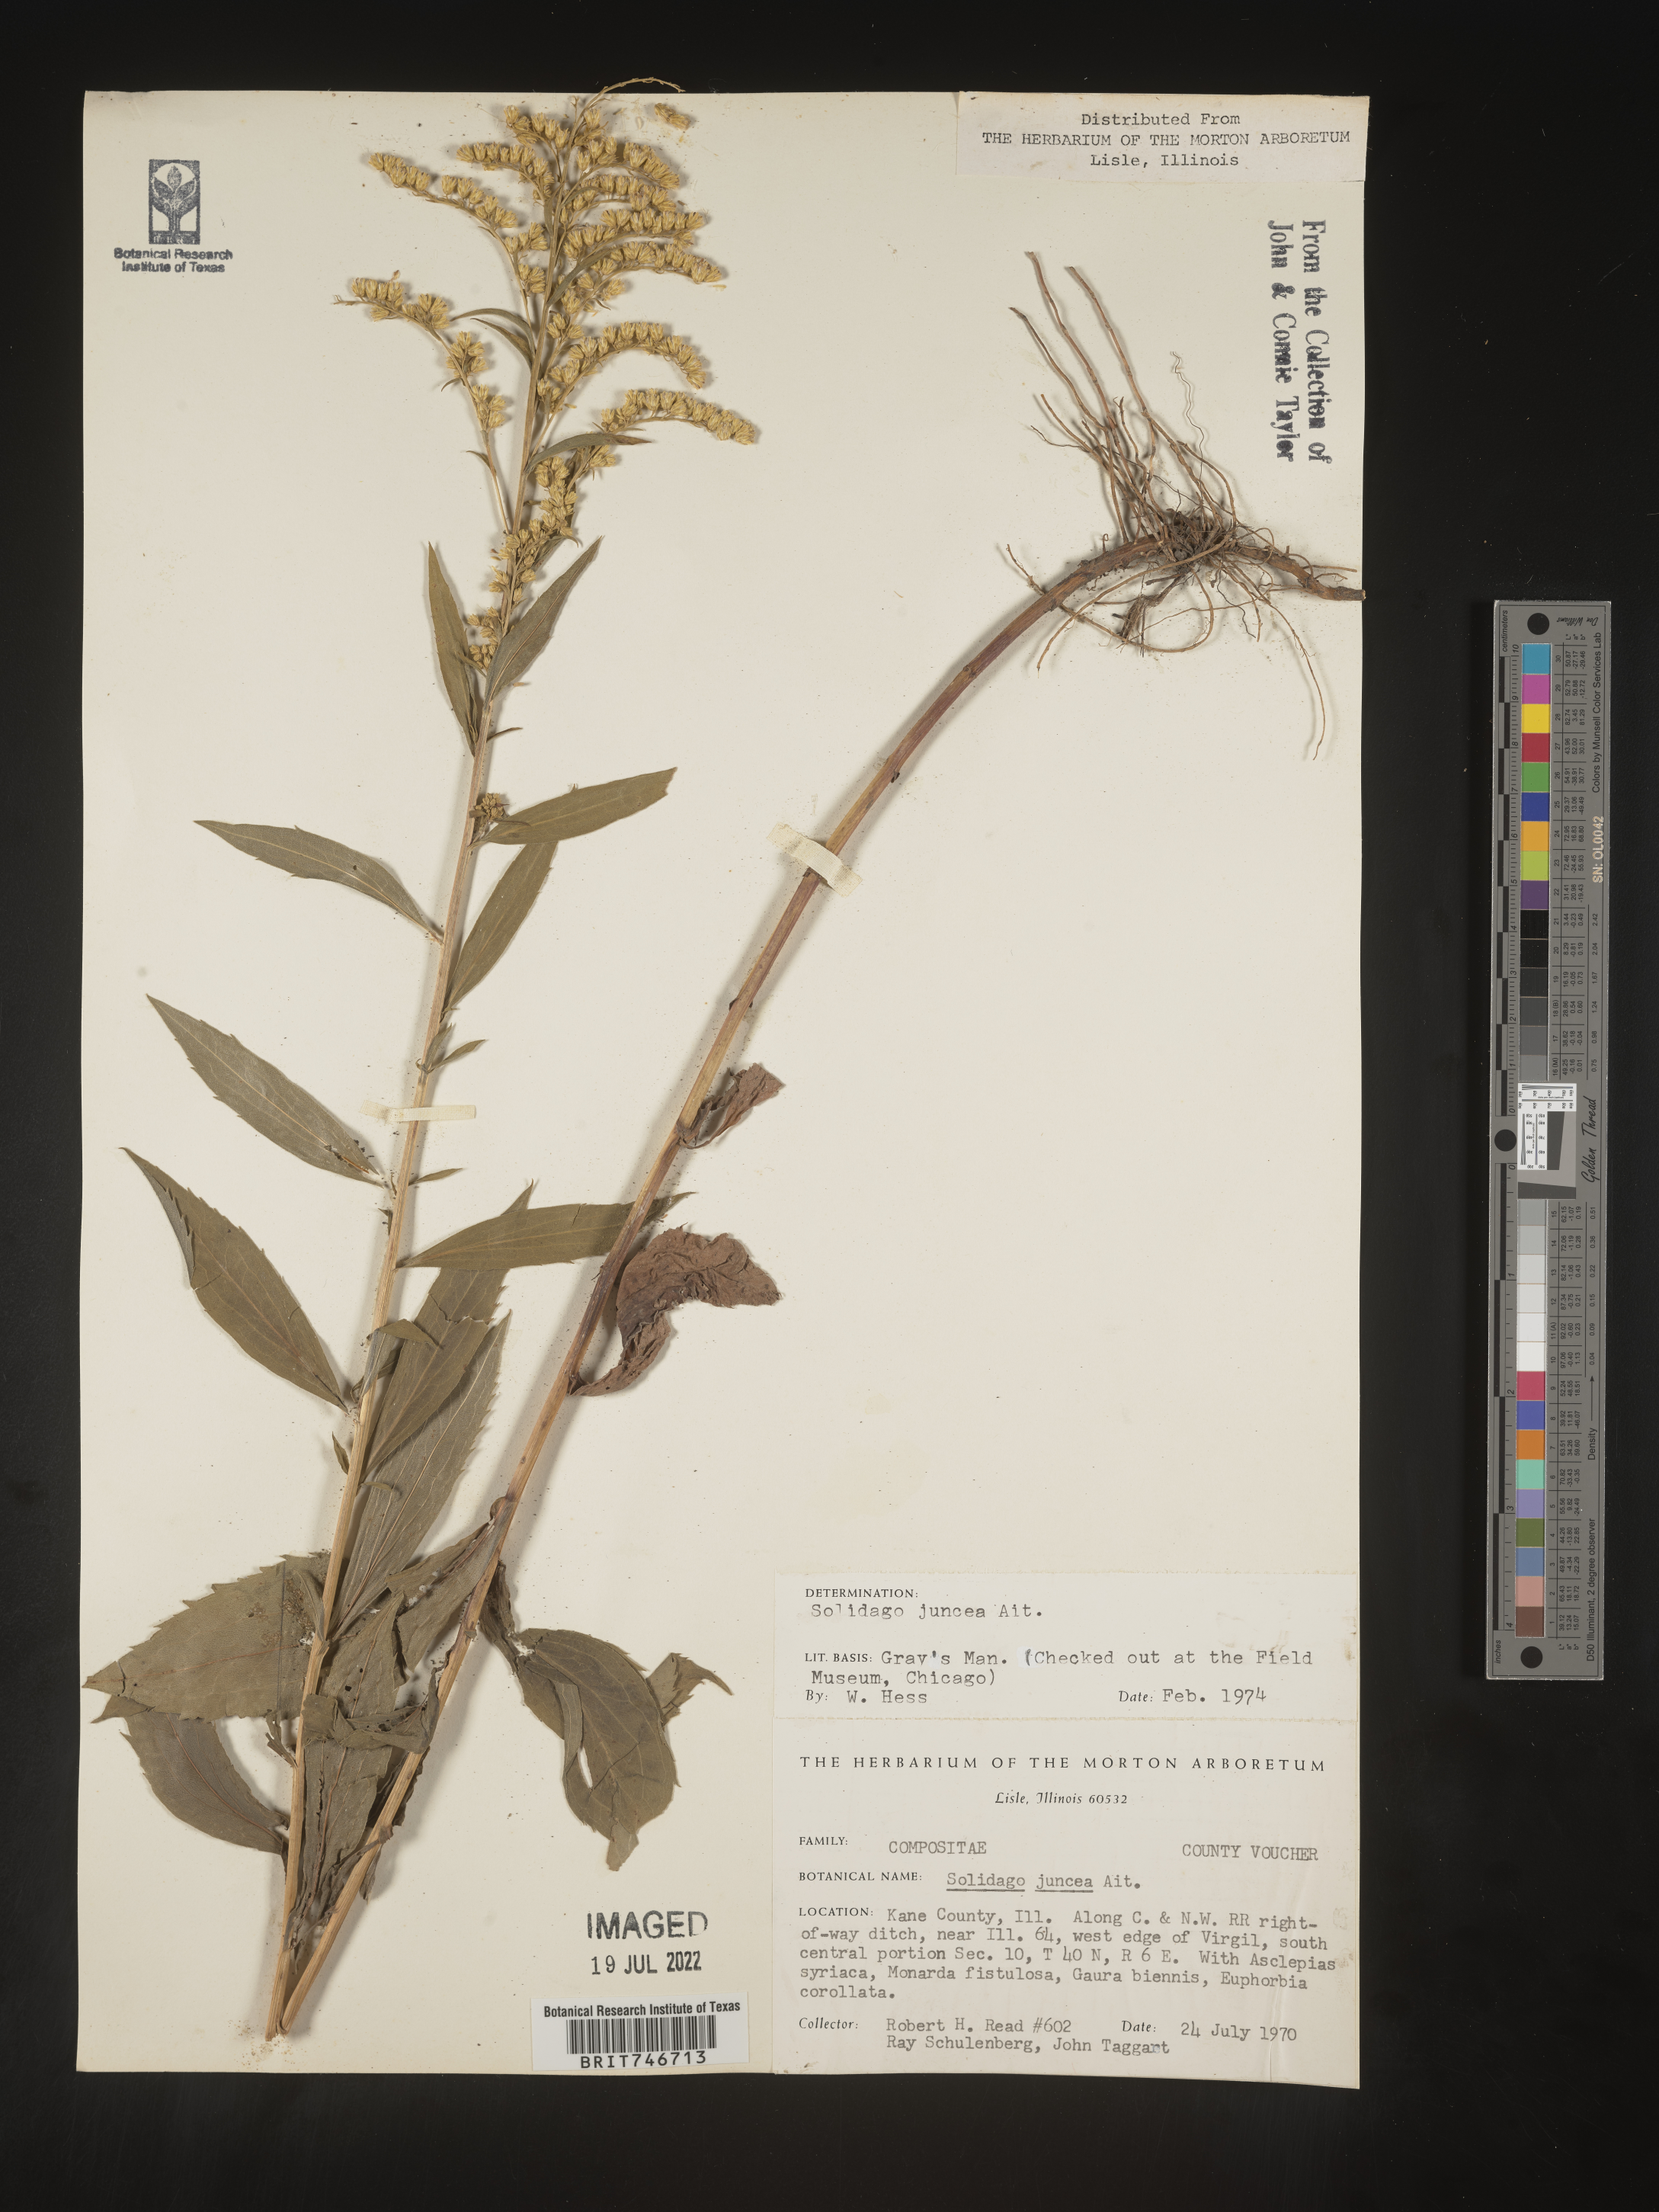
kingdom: Plantae
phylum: Tracheophyta
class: Magnoliopsida
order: Asterales
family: Asteraceae
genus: Solidago
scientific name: Solidago juncea
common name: Early goldenrod
